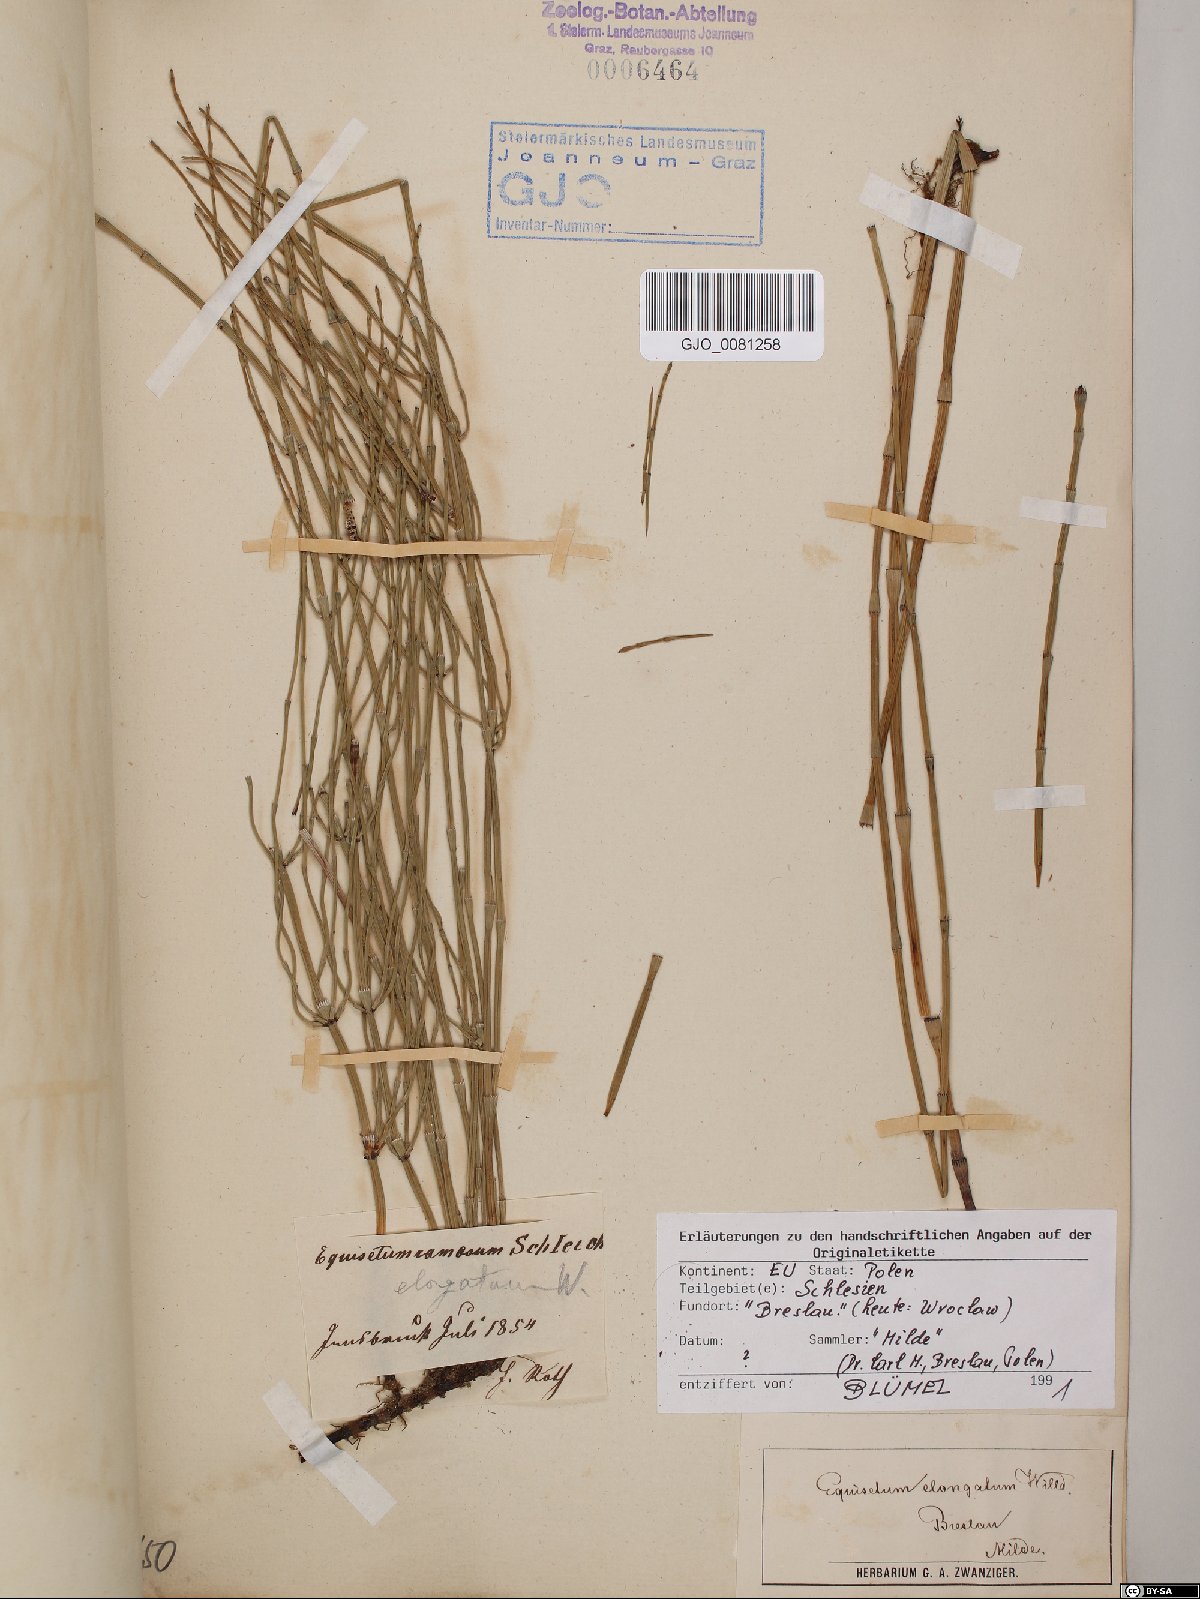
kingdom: Plantae
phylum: Tracheophyta
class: Polypodiopsida
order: Equisetales
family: Equisetaceae
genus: Equisetum
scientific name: Equisetum ramosissimum
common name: Branched horsetail
